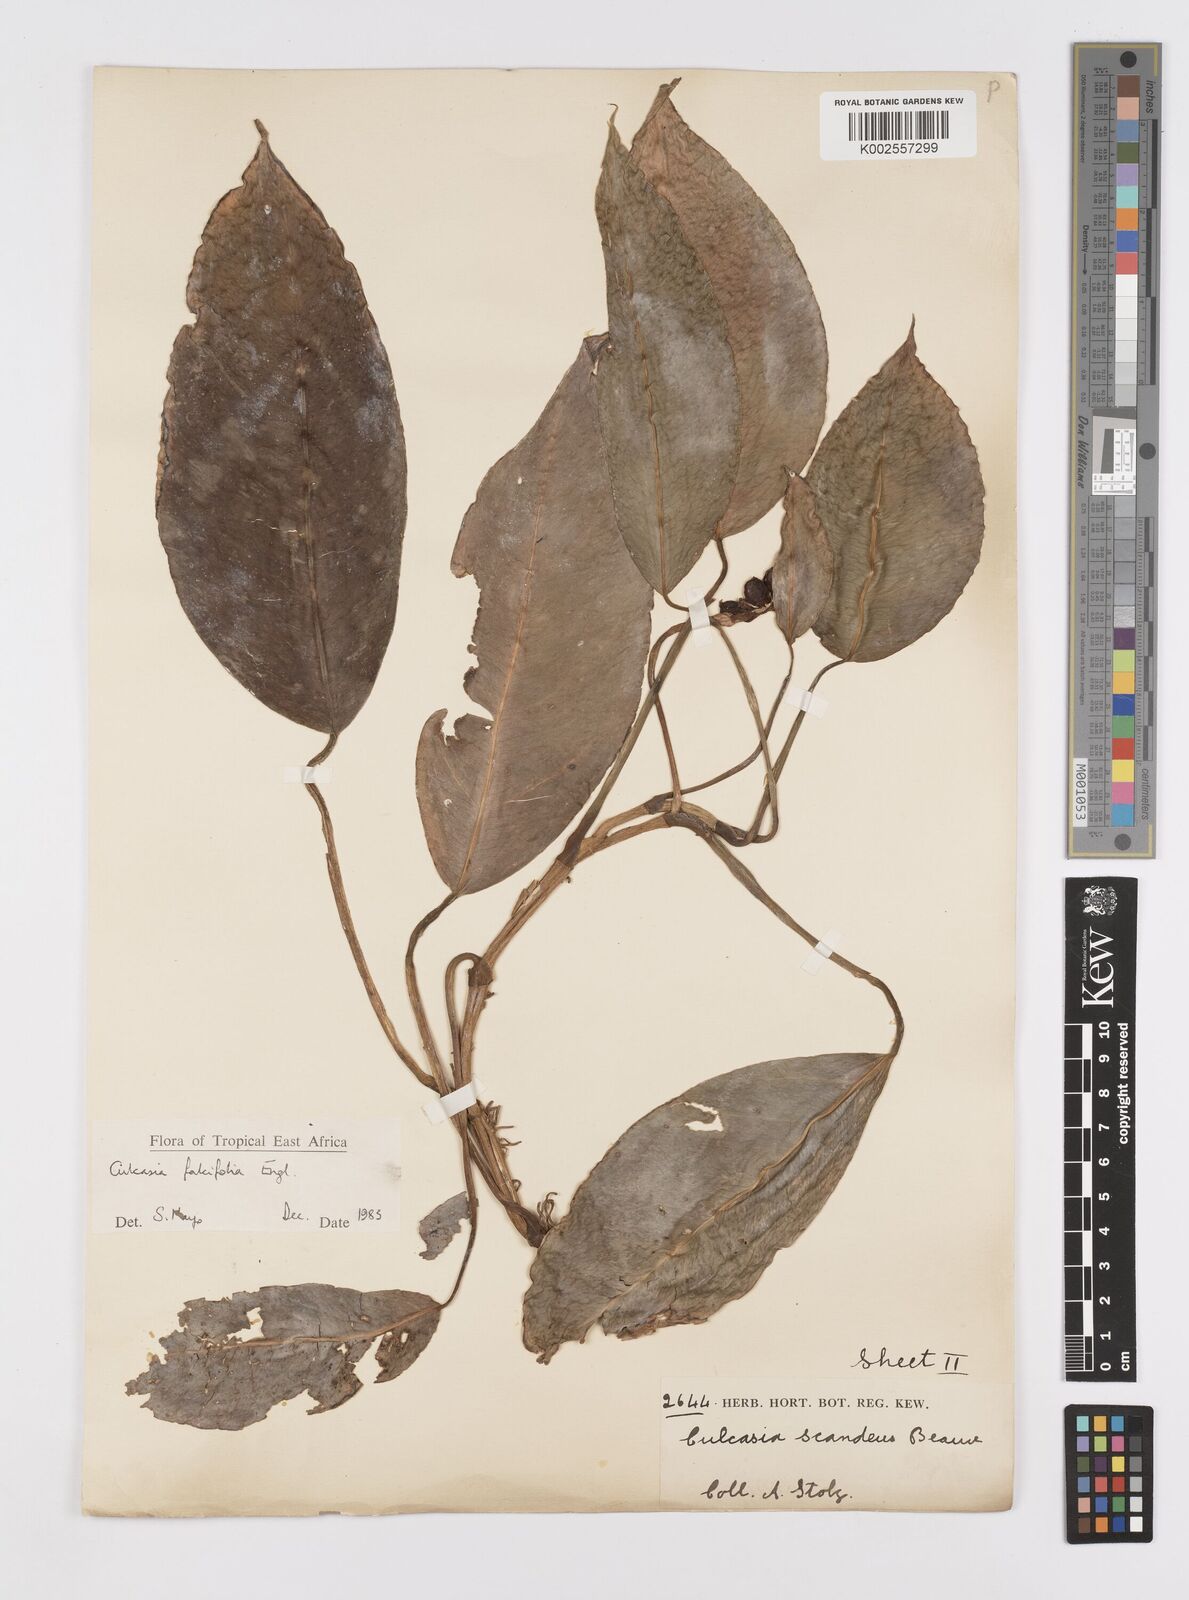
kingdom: Plantae
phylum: Tracheophyta
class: Liliopsida
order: Alismatales
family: Araceae
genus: Culcasia
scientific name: Culcasia falcifolia
